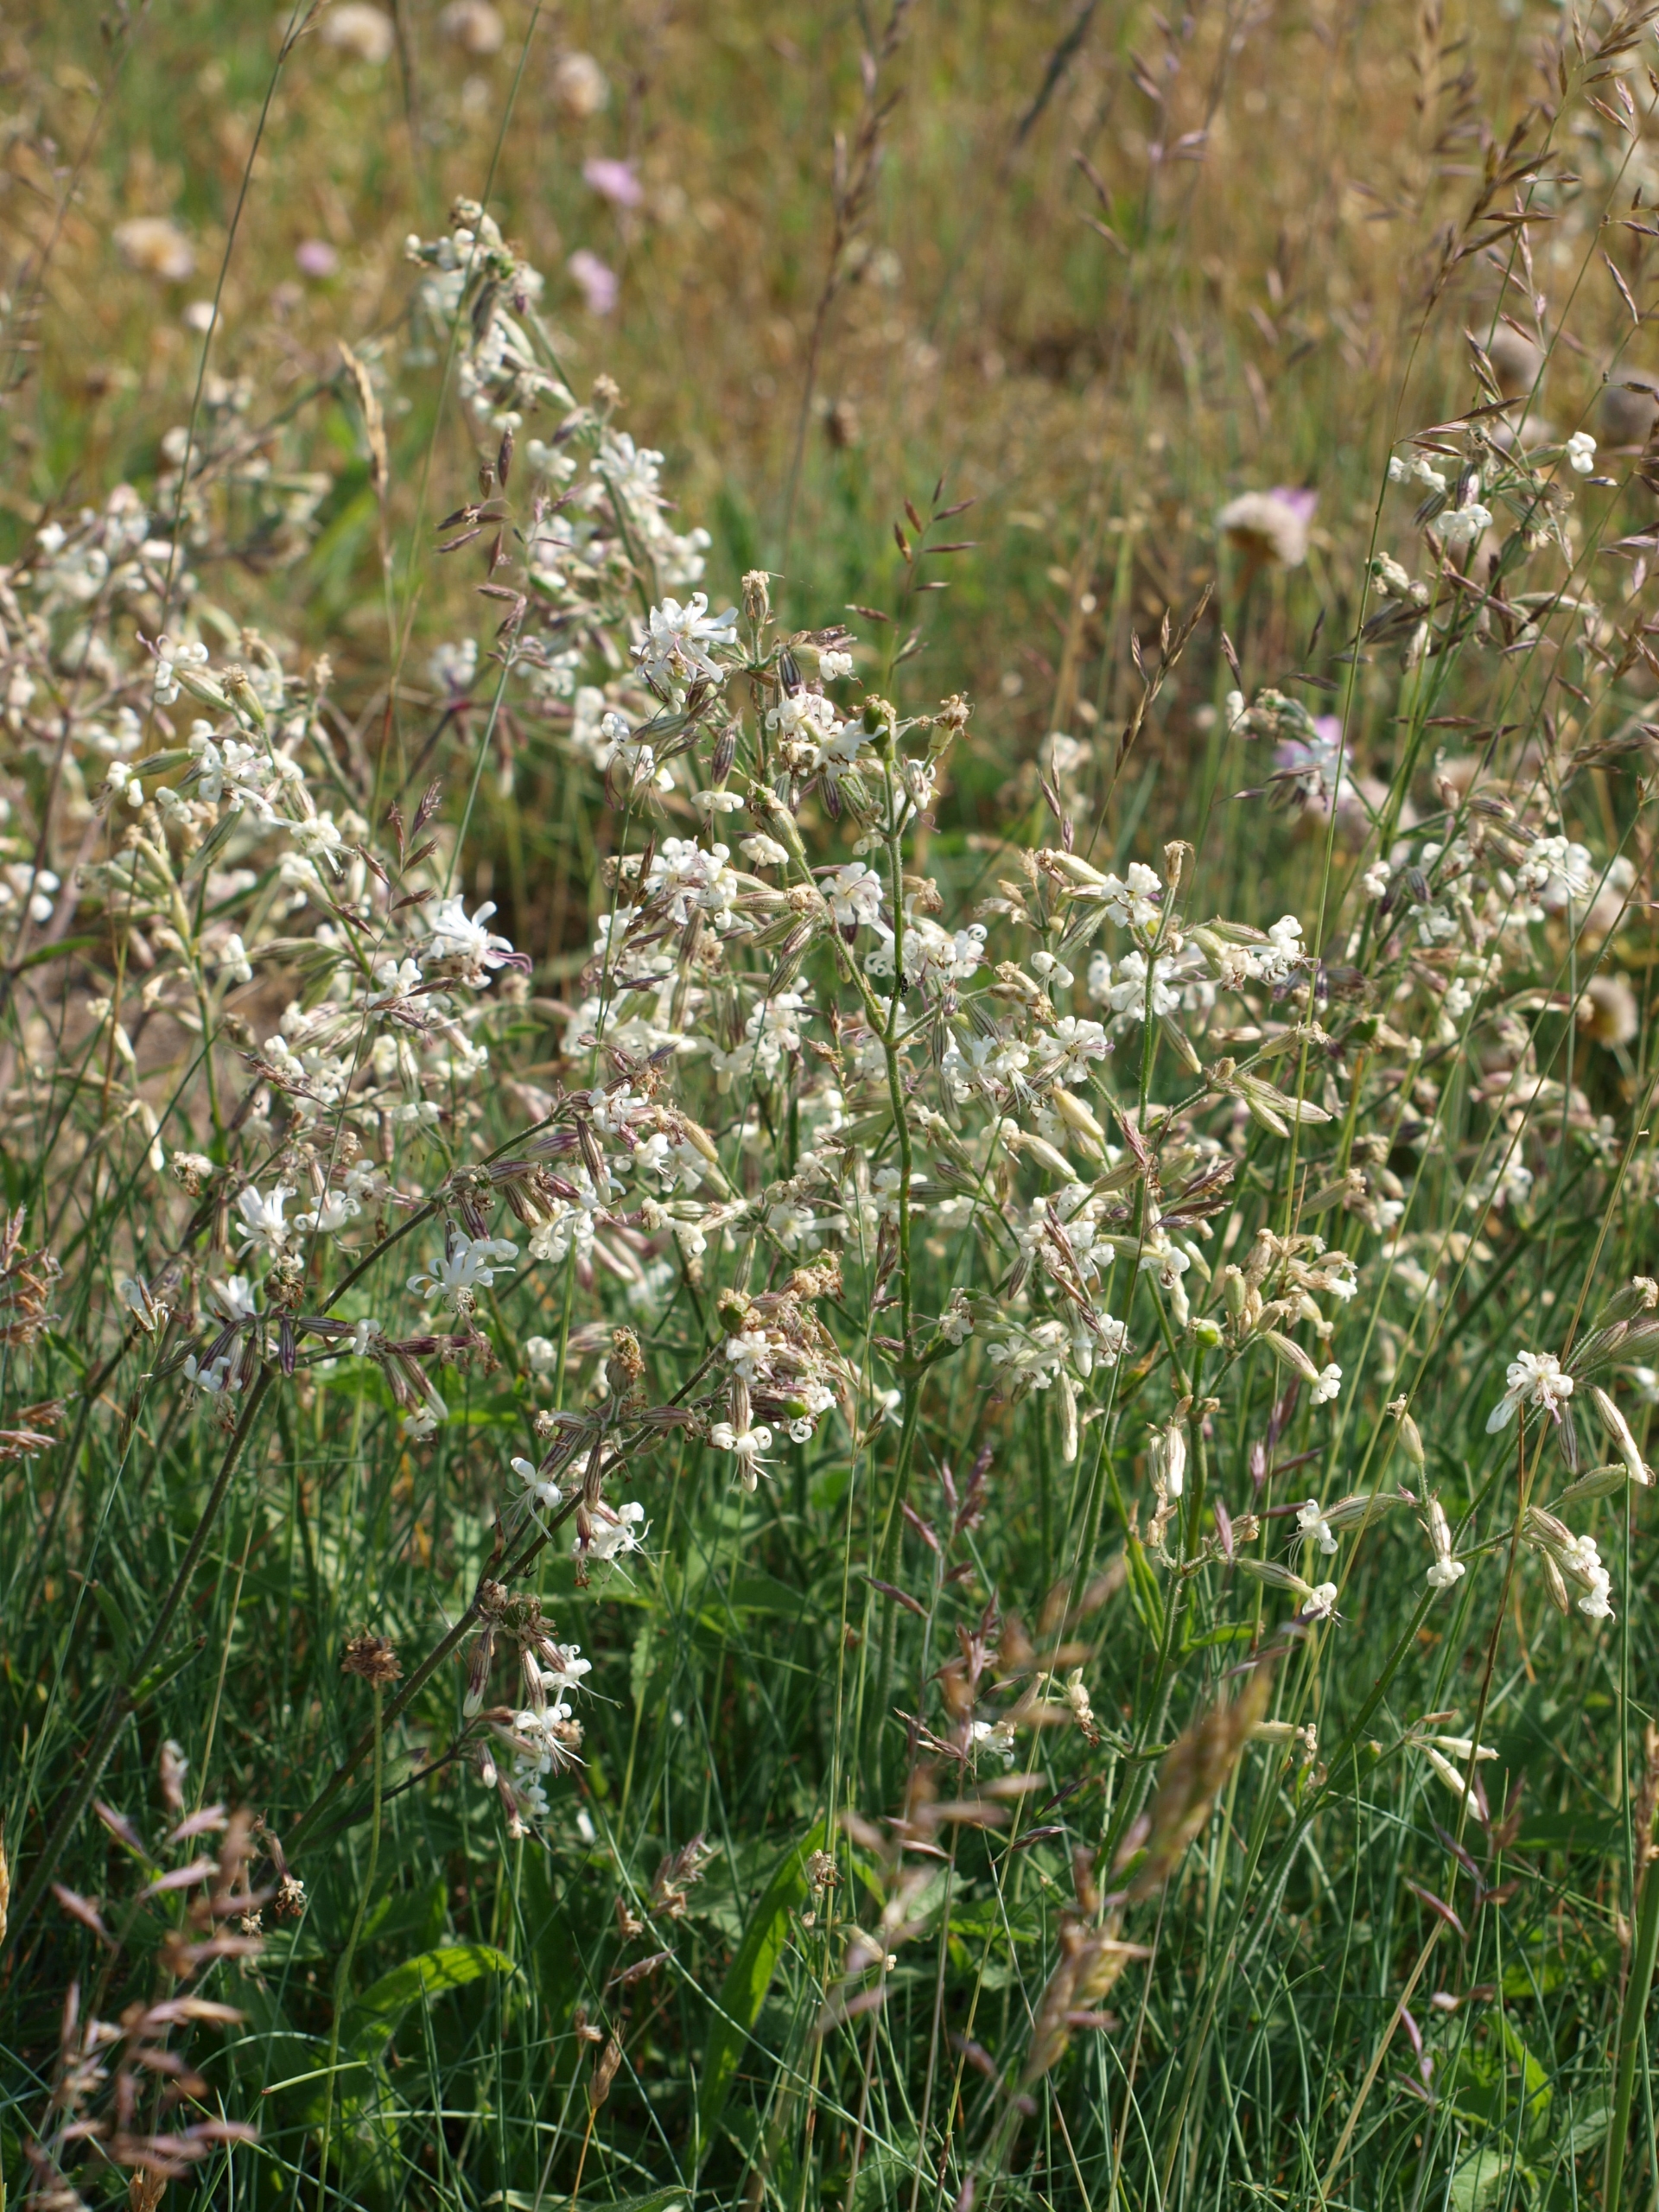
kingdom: Plantae
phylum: Tracheophyta
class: Magnoliopsida
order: Caryophyllales
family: Caryophyllaceae
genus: Silene
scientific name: Silene nutans
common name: Nikkende limurt
